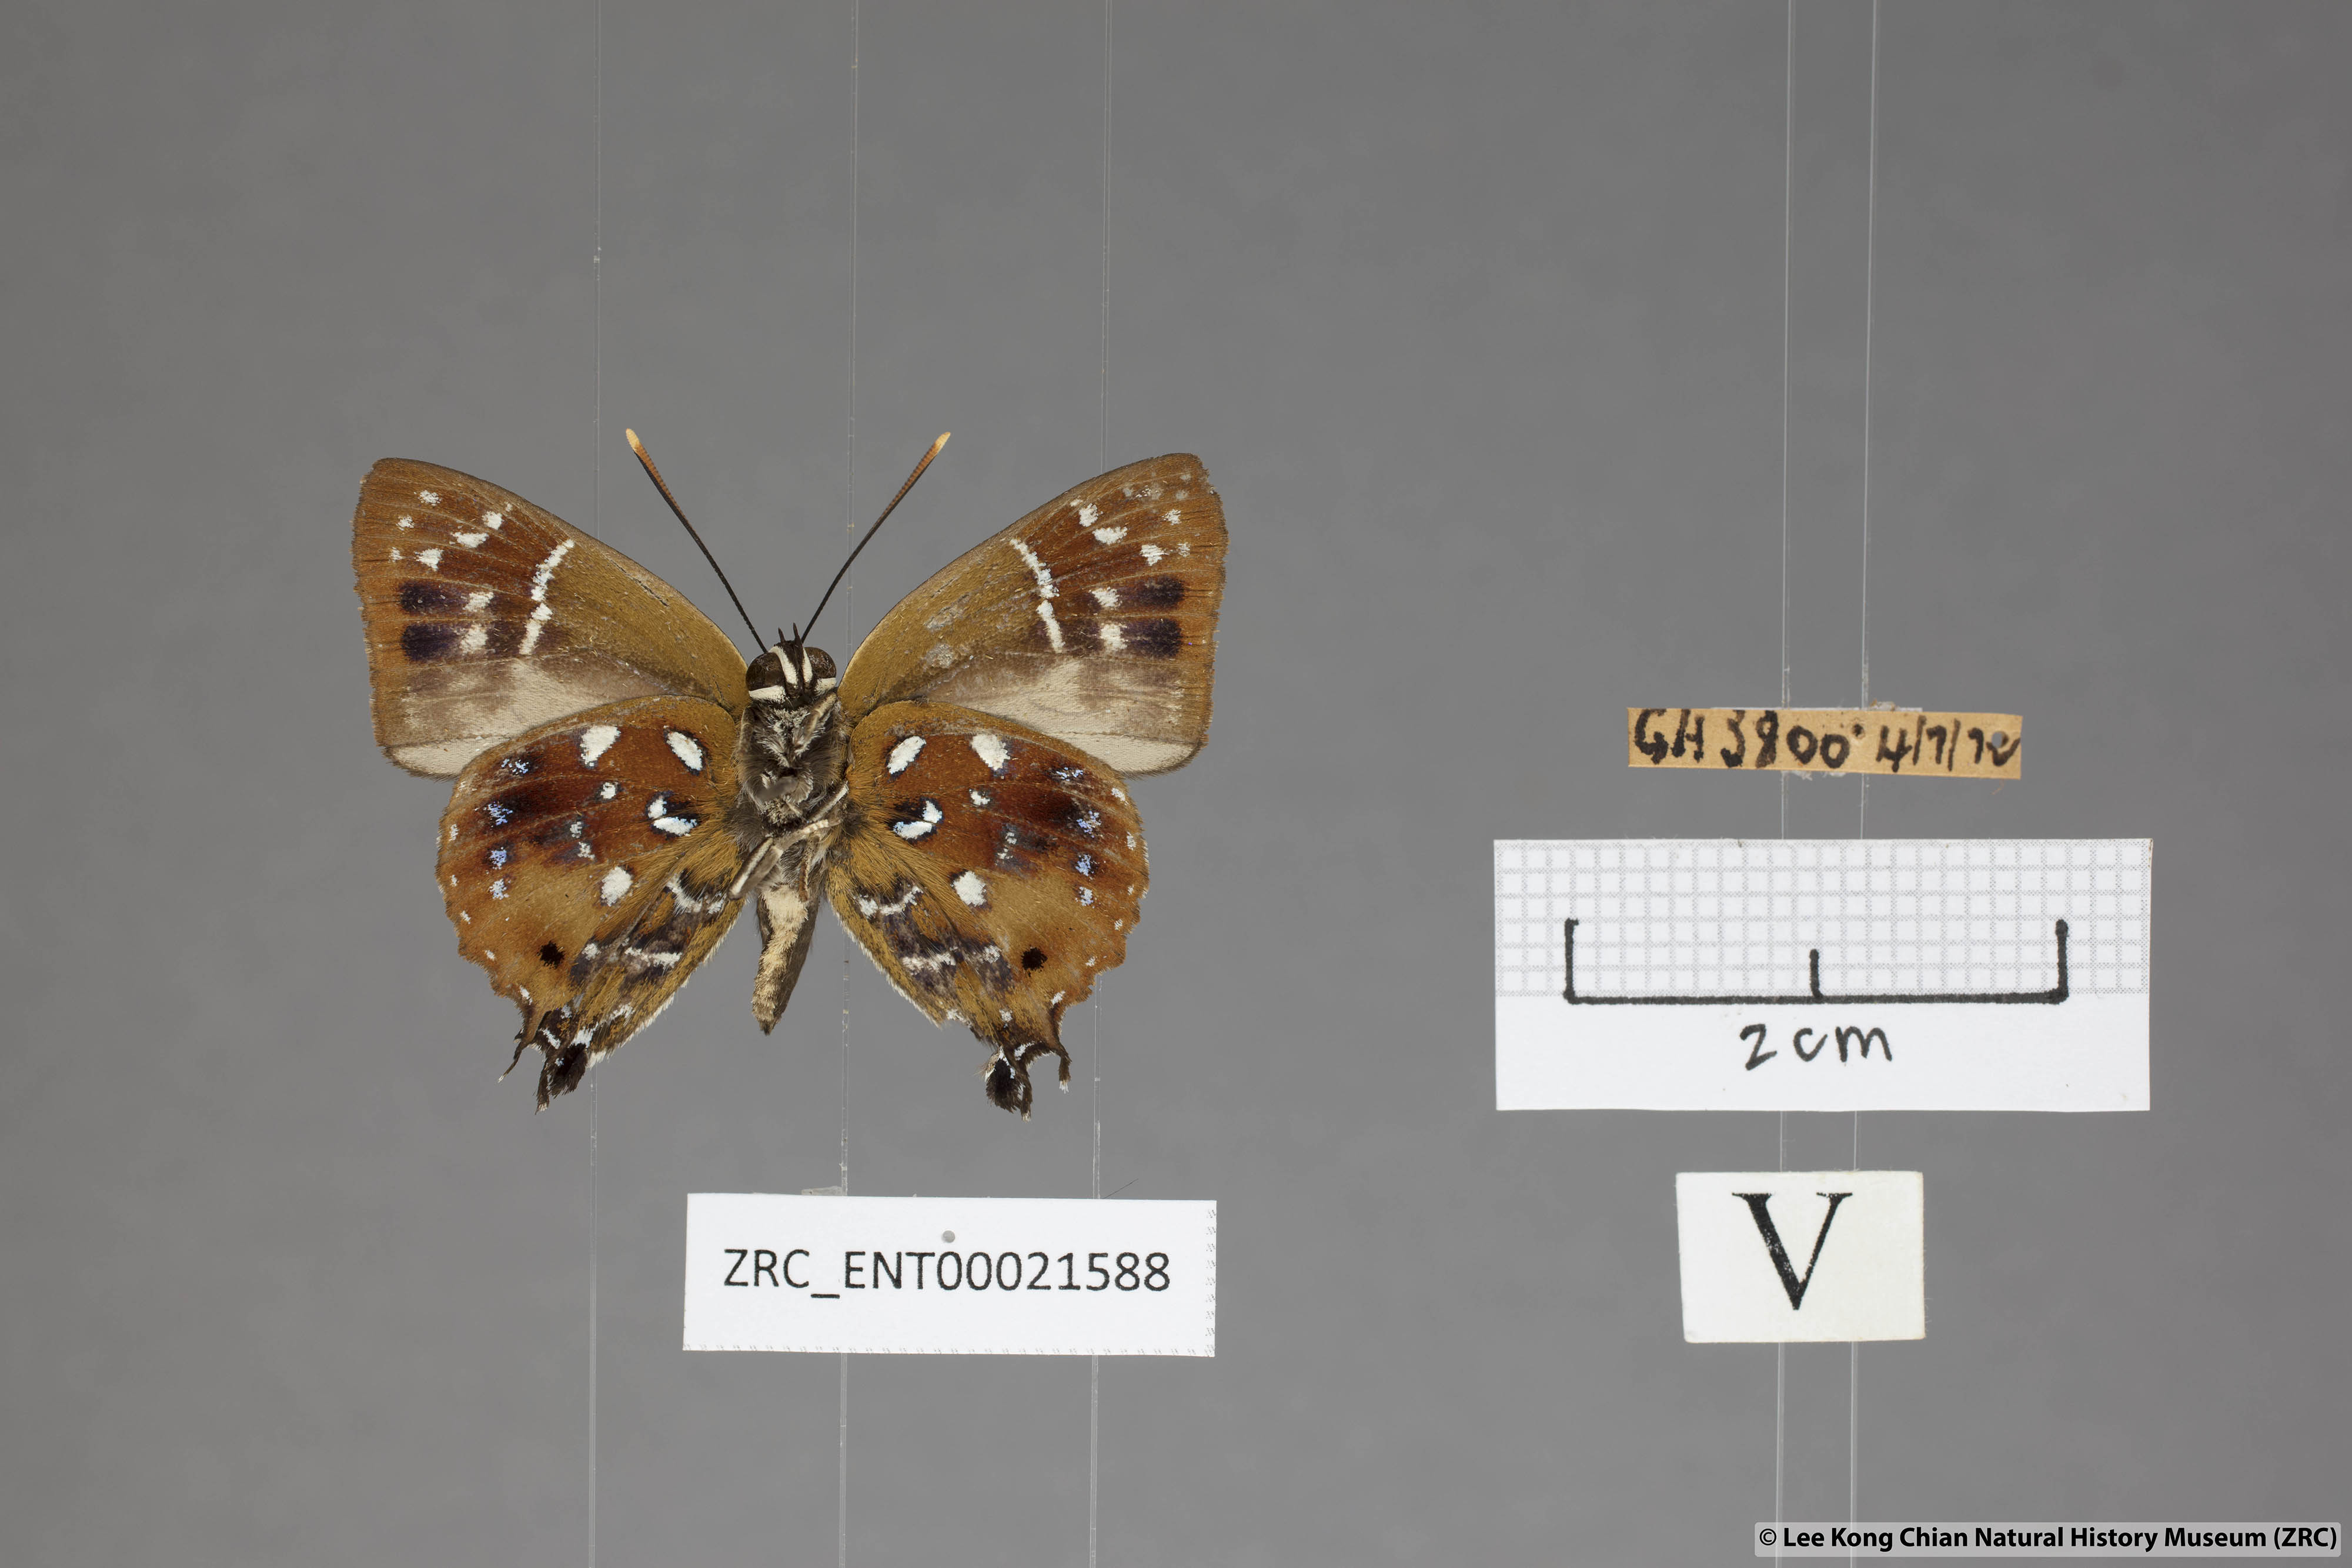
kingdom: Animalia
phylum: Arthropoda
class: Insecta
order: Lepidoptera
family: Lycaenidae
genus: Iraota
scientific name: Iraota
